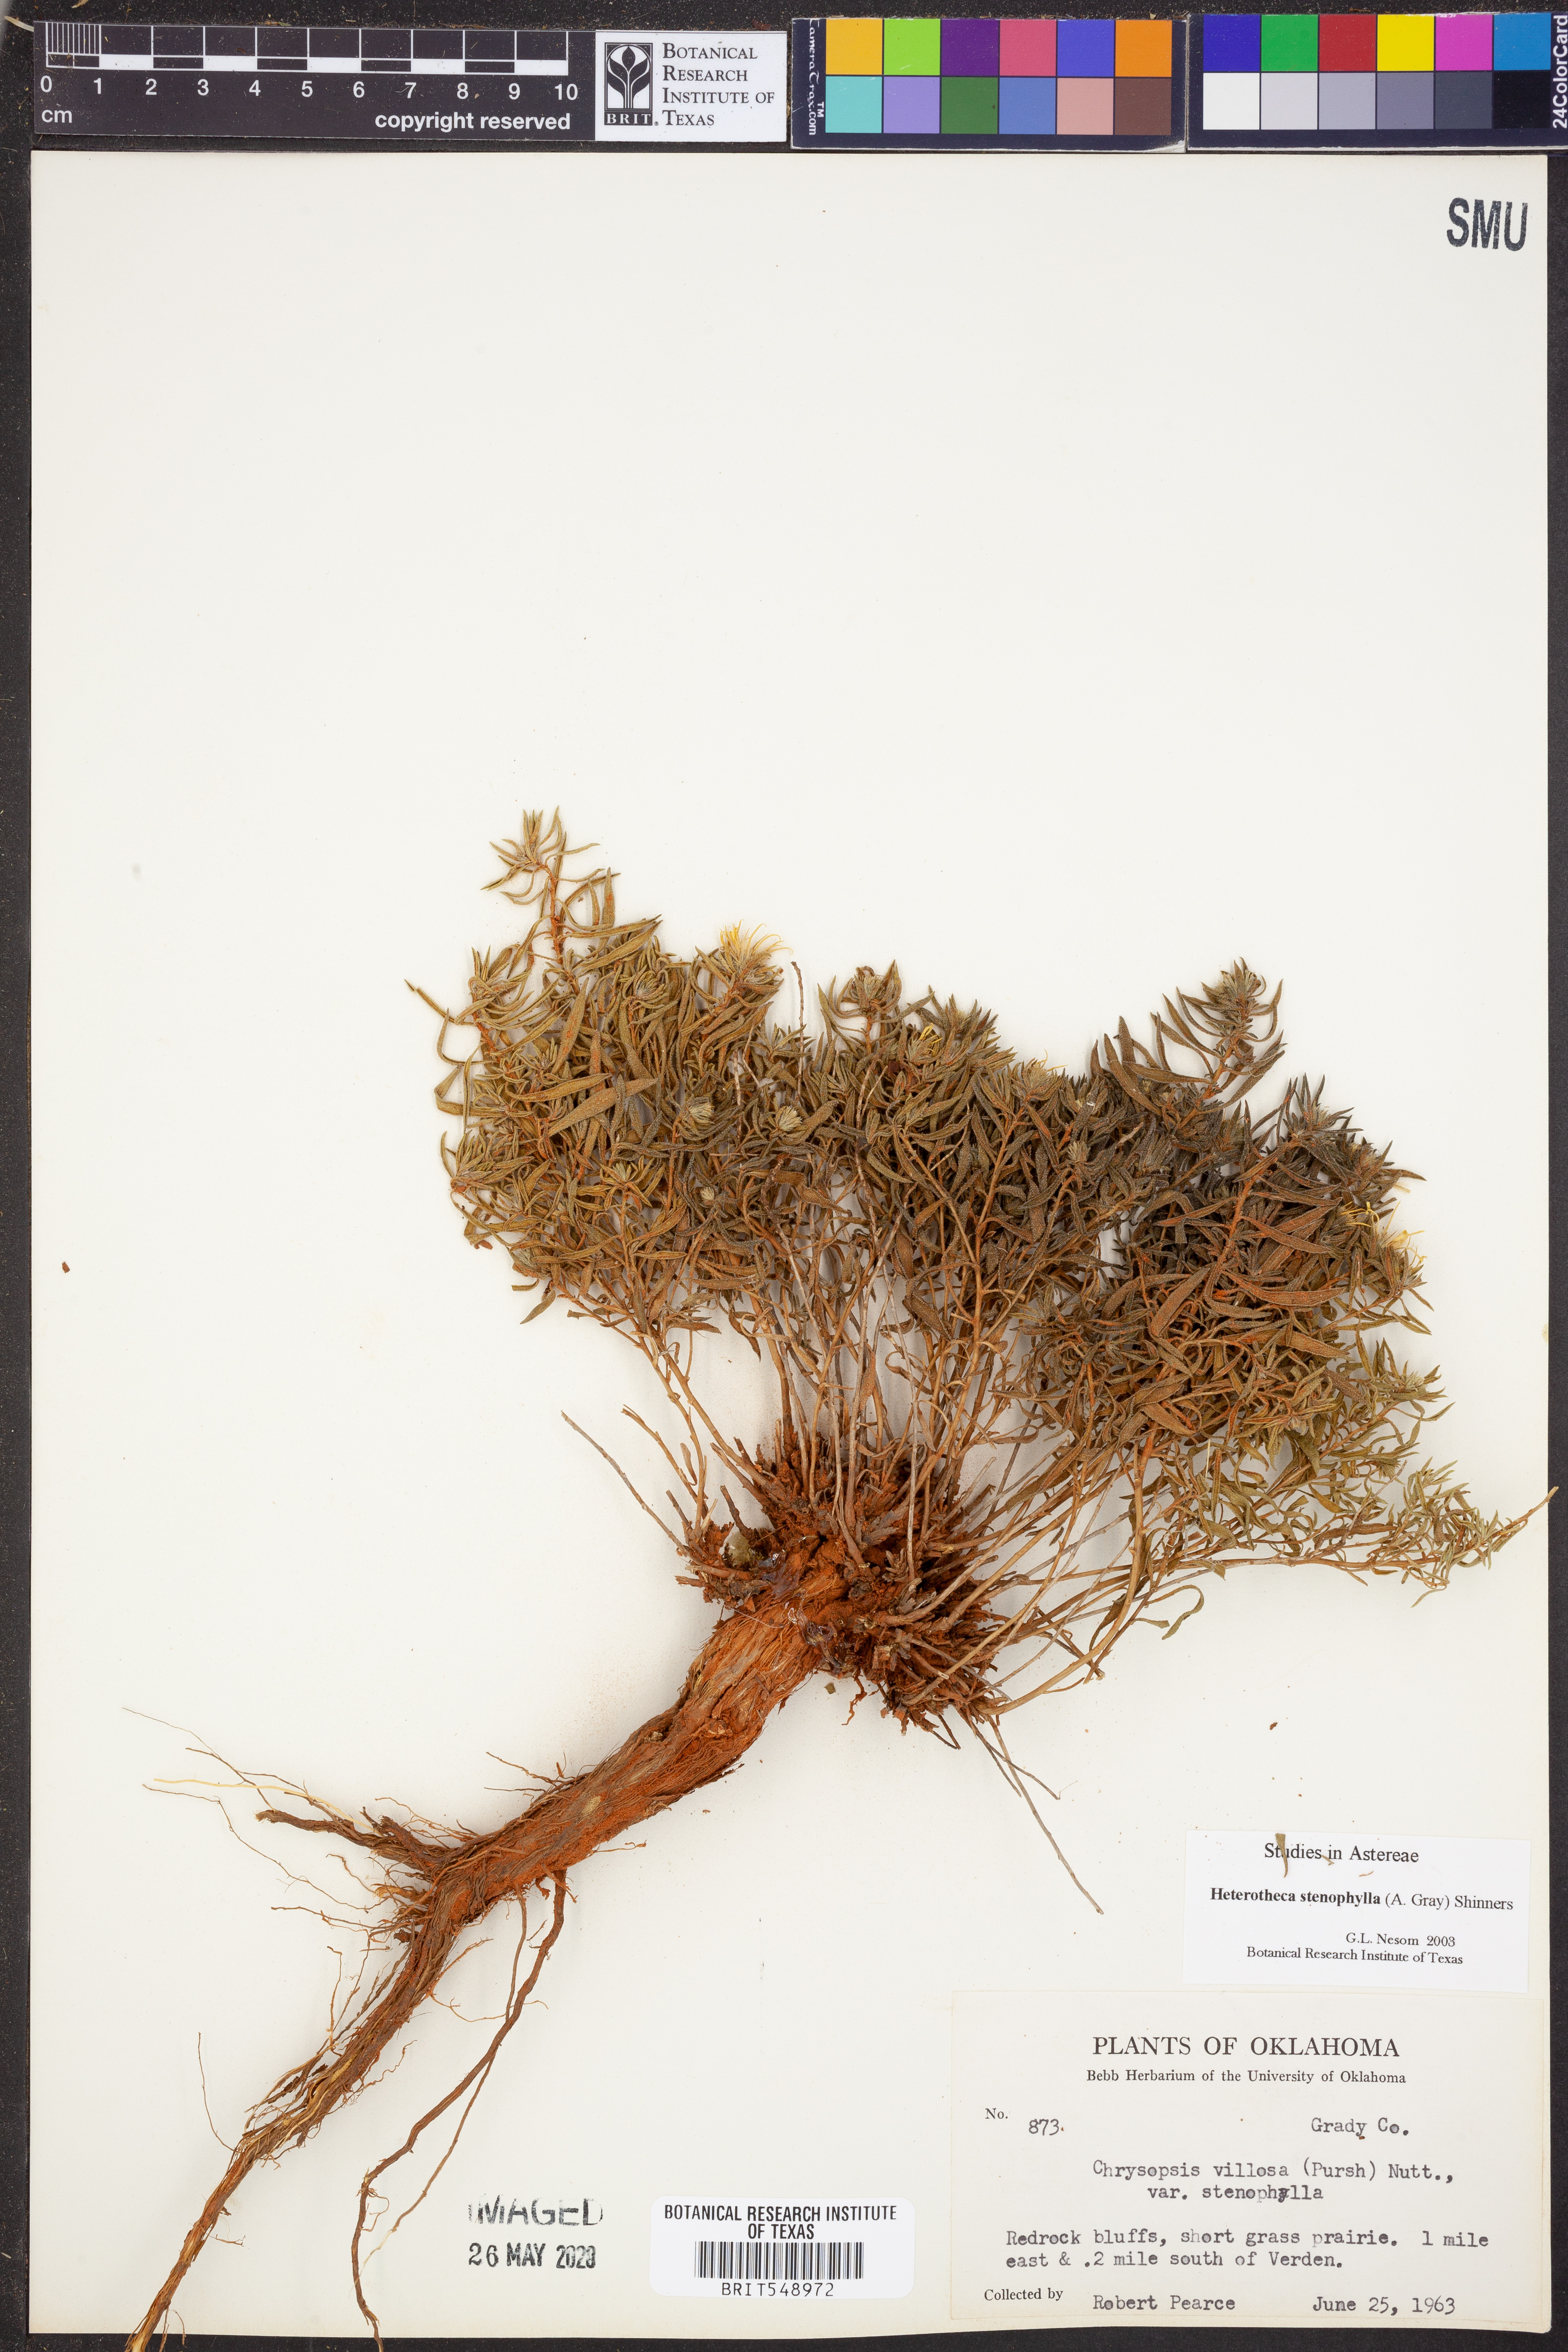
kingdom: Plantae
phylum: Tracheophyta
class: Magnoliopsida
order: Asterales
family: Asteraceae
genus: Heterotheca
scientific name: Heterotheca stenophylla
